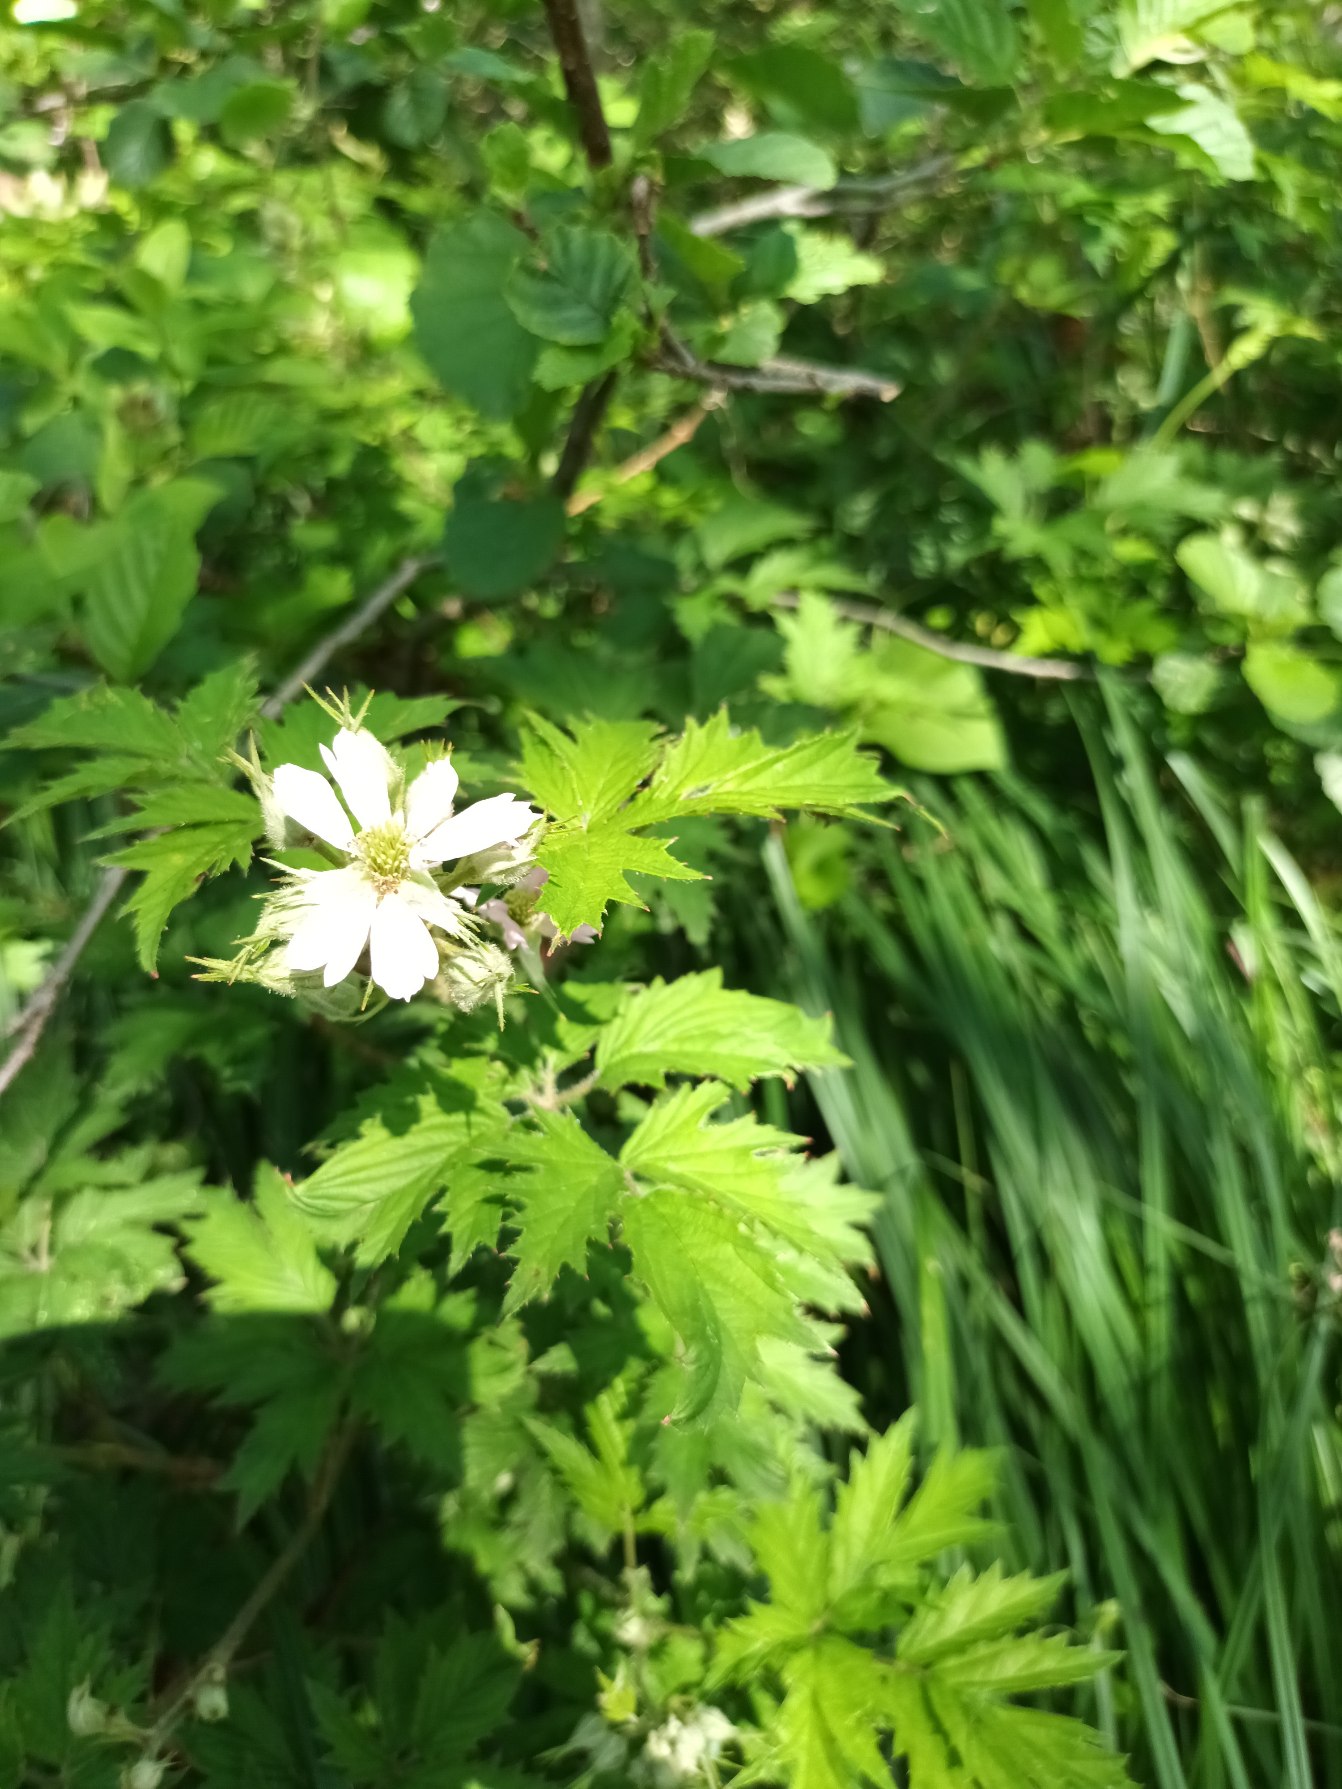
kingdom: Plantae
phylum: Tracheophyta
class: Magnoliopsida
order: Rosales
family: Rosaceae
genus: Rubus
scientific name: Rubus laciniatus
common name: Fliget brombær
